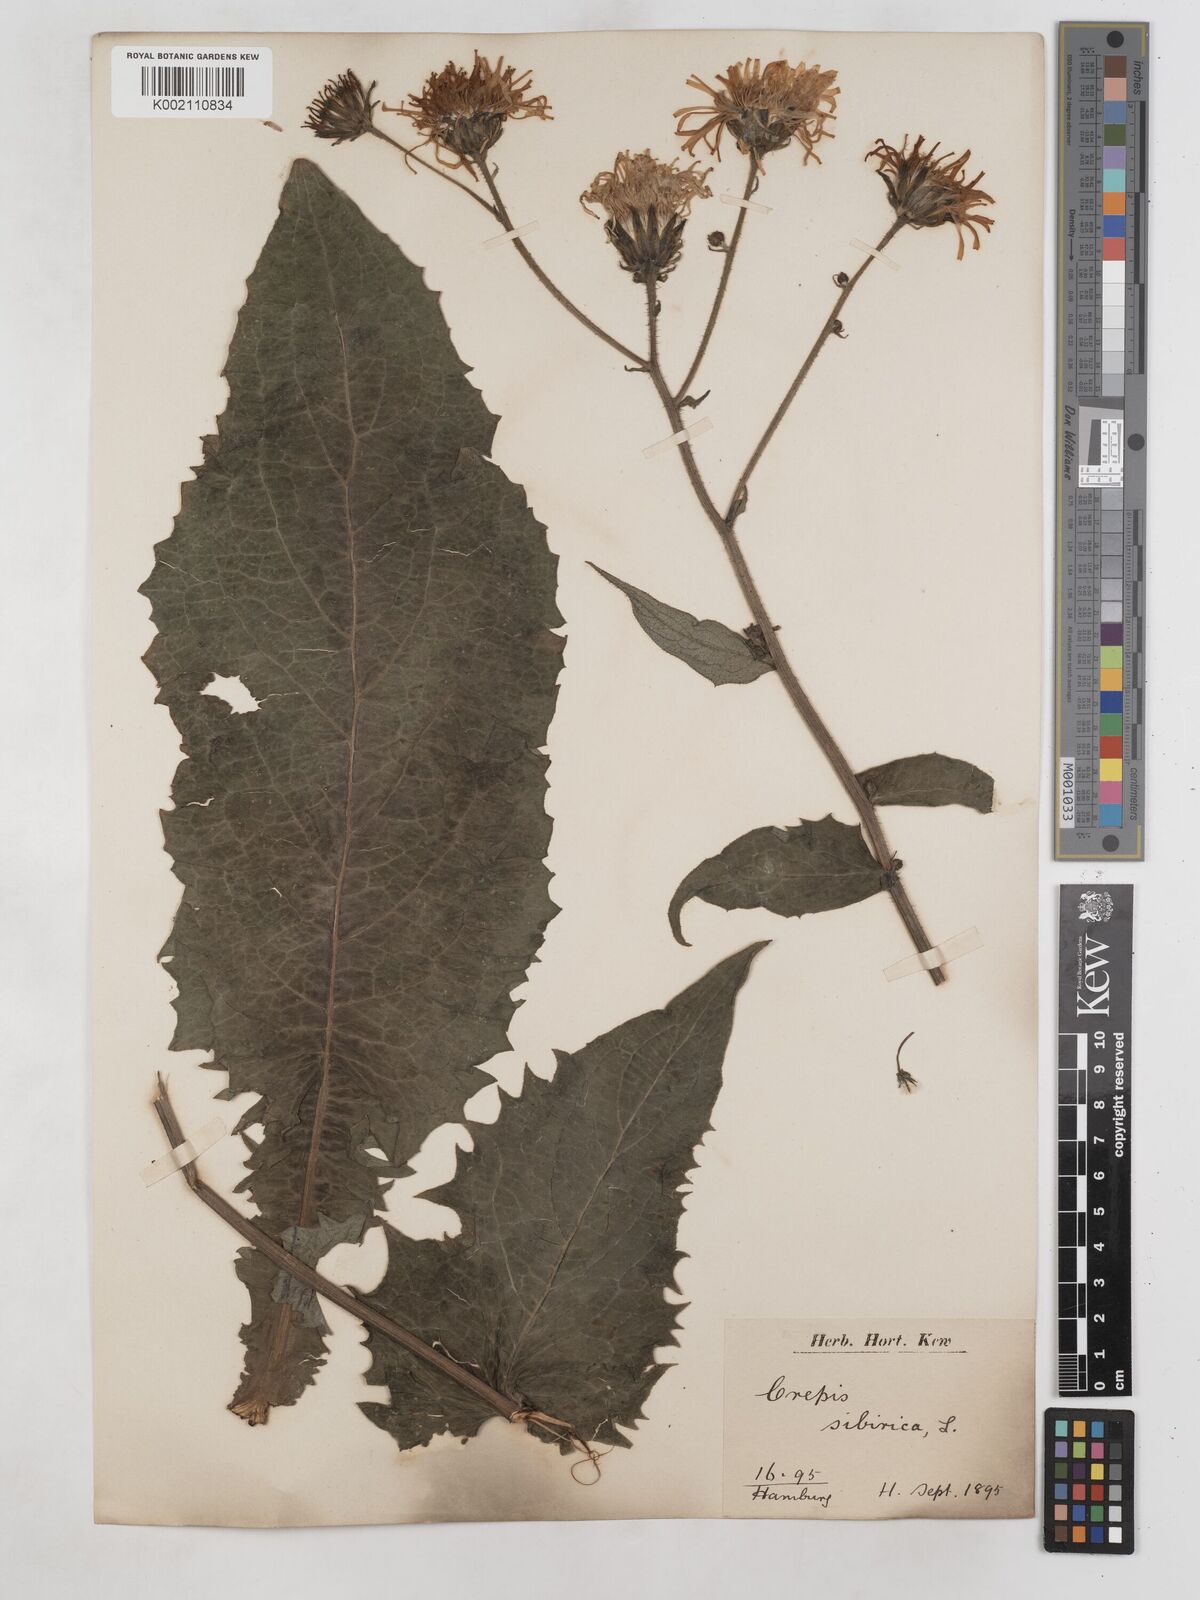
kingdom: Plantae
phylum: Tracheophyta
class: Magnoliopsida
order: Asterales
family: Asteraceae
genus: Crepis
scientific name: Crepis sibirica
